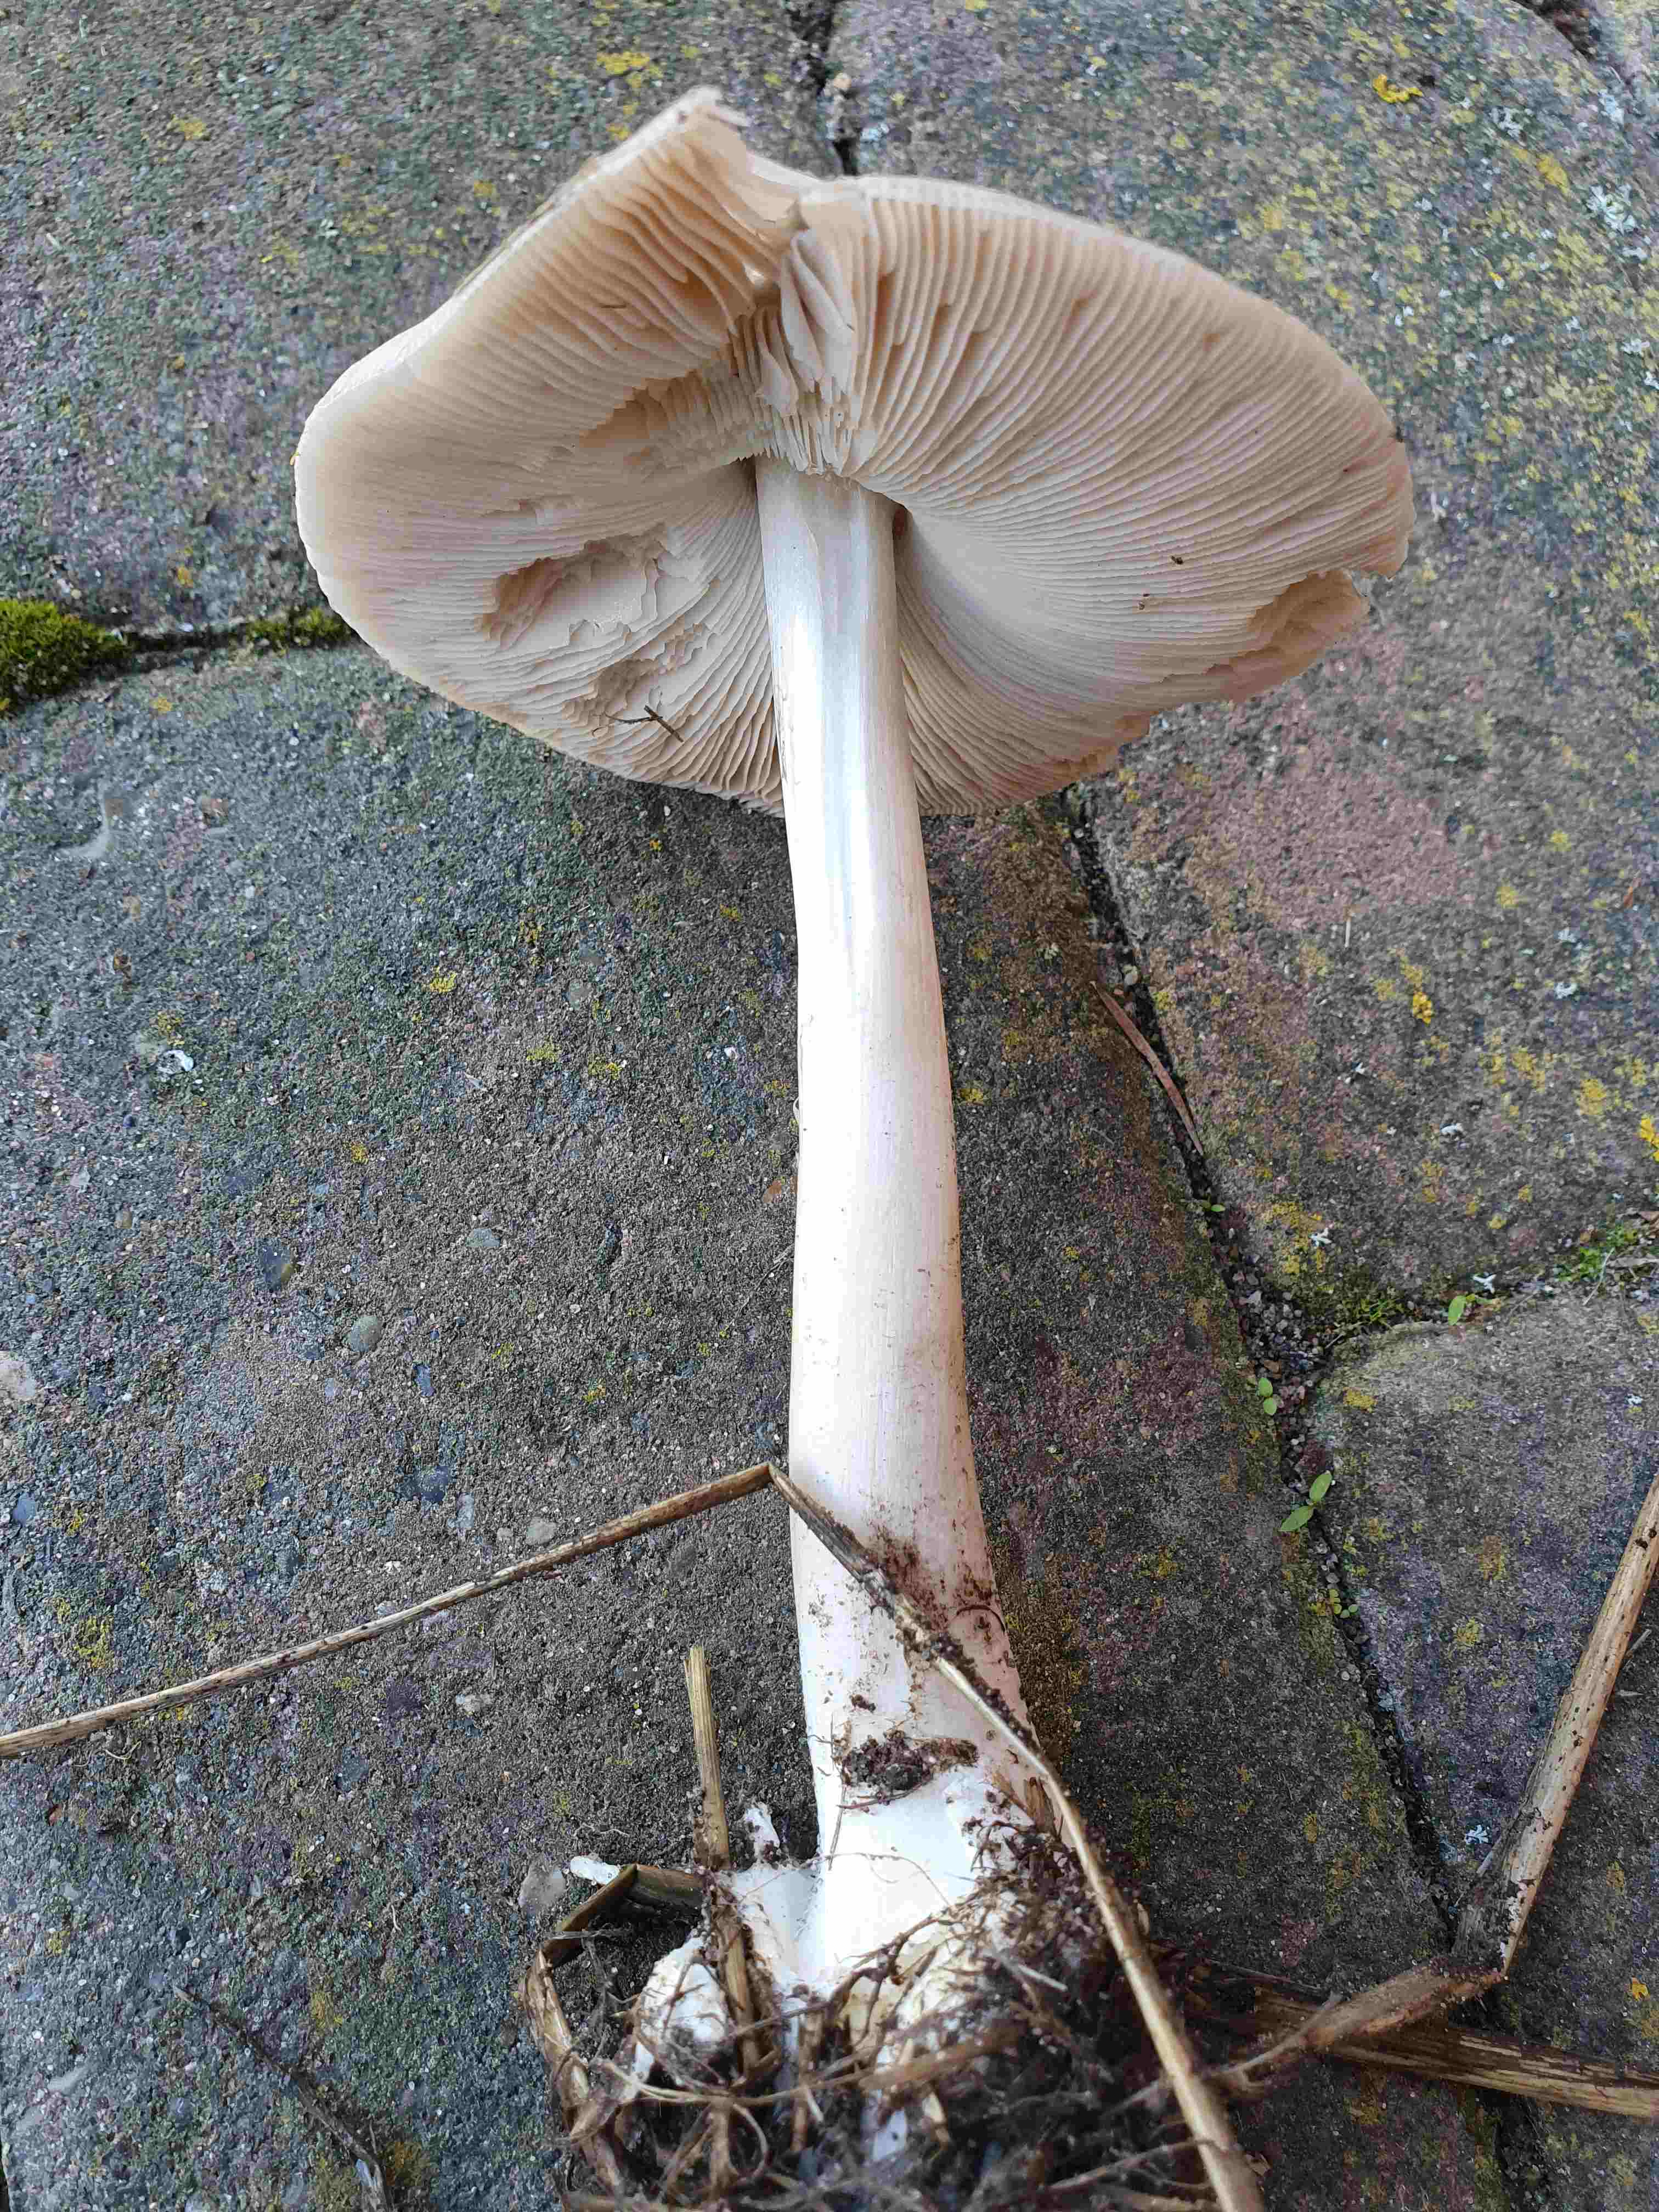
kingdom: Fungi
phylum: Basidiomycota
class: Agaricomycetes
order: Agaricales
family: Pluteaceae
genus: Volvopluteus
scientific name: Volvopluteus gloiocephalus
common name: høj posesvamp
